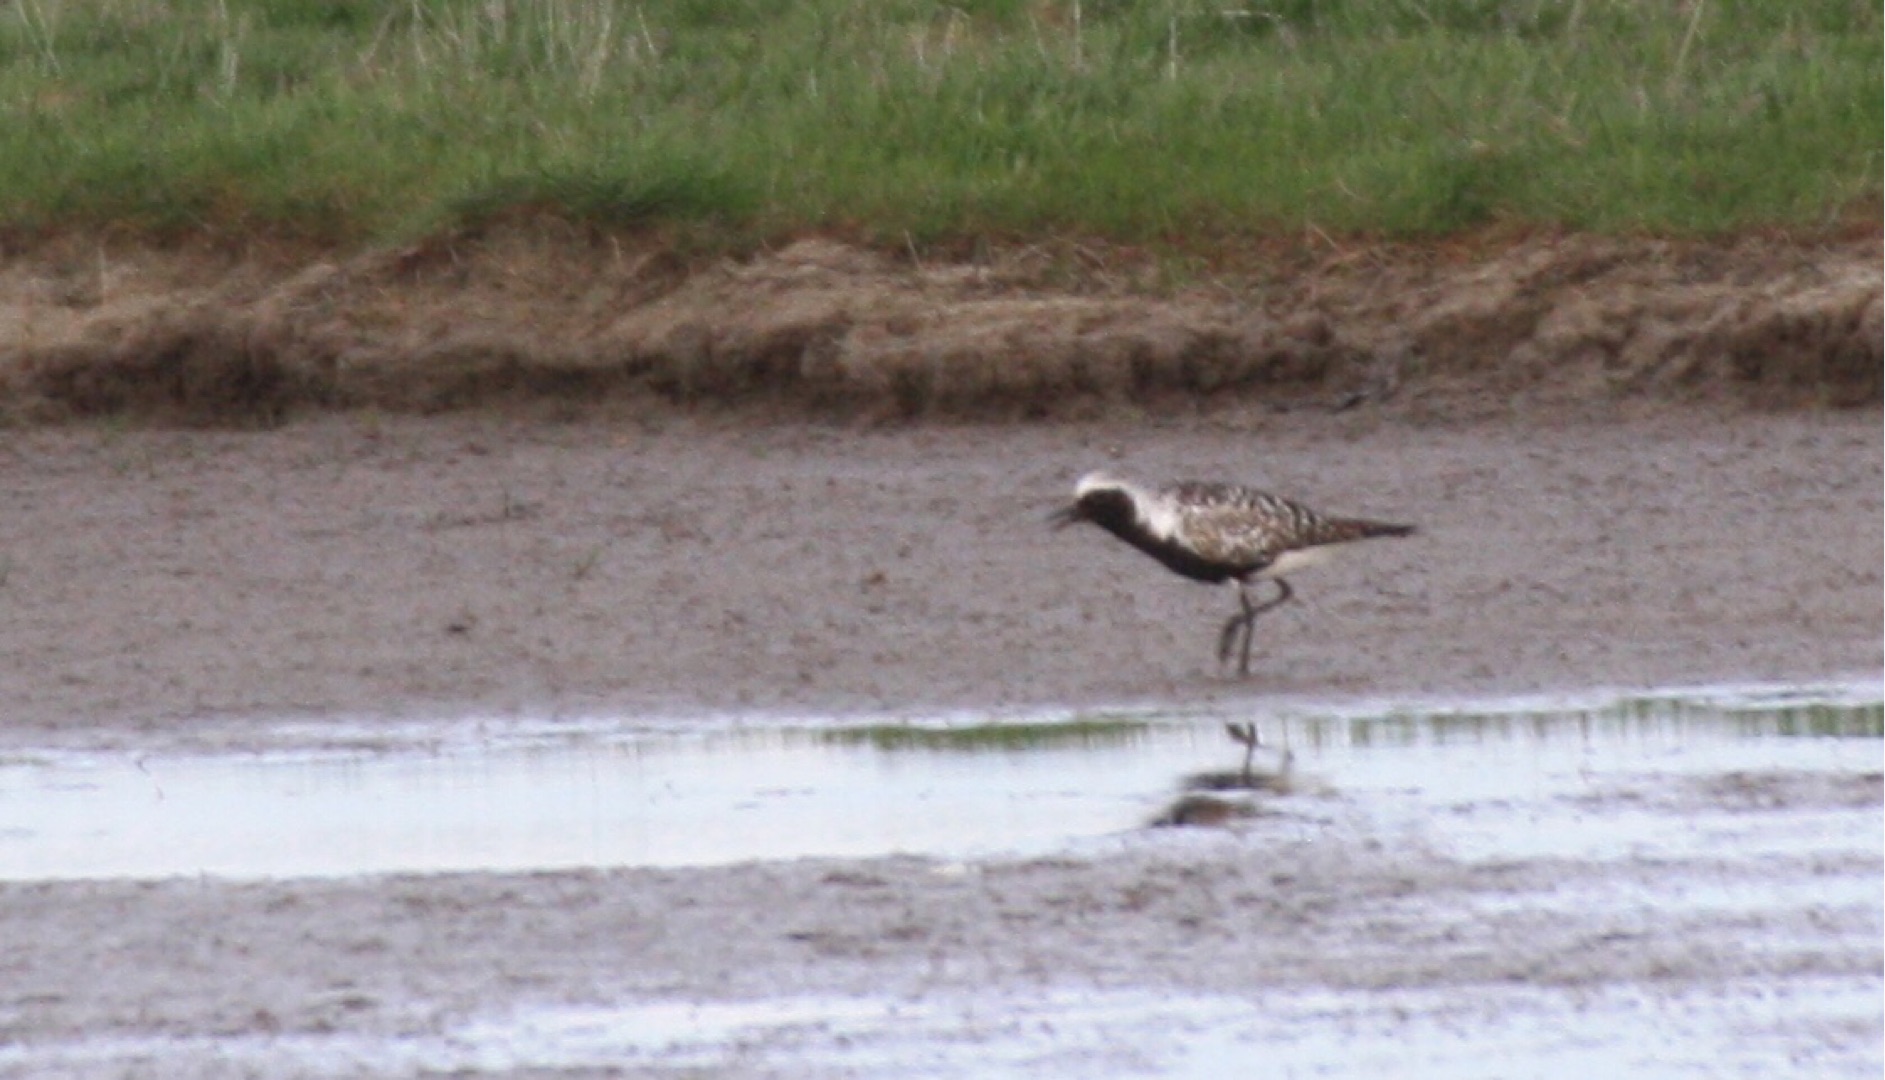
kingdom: Animalia
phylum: Chordata
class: Aves
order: Charadriiformes
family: Charadriidae
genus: Pluvialis
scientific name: Pluvialis squatarola
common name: Strandhjejle
